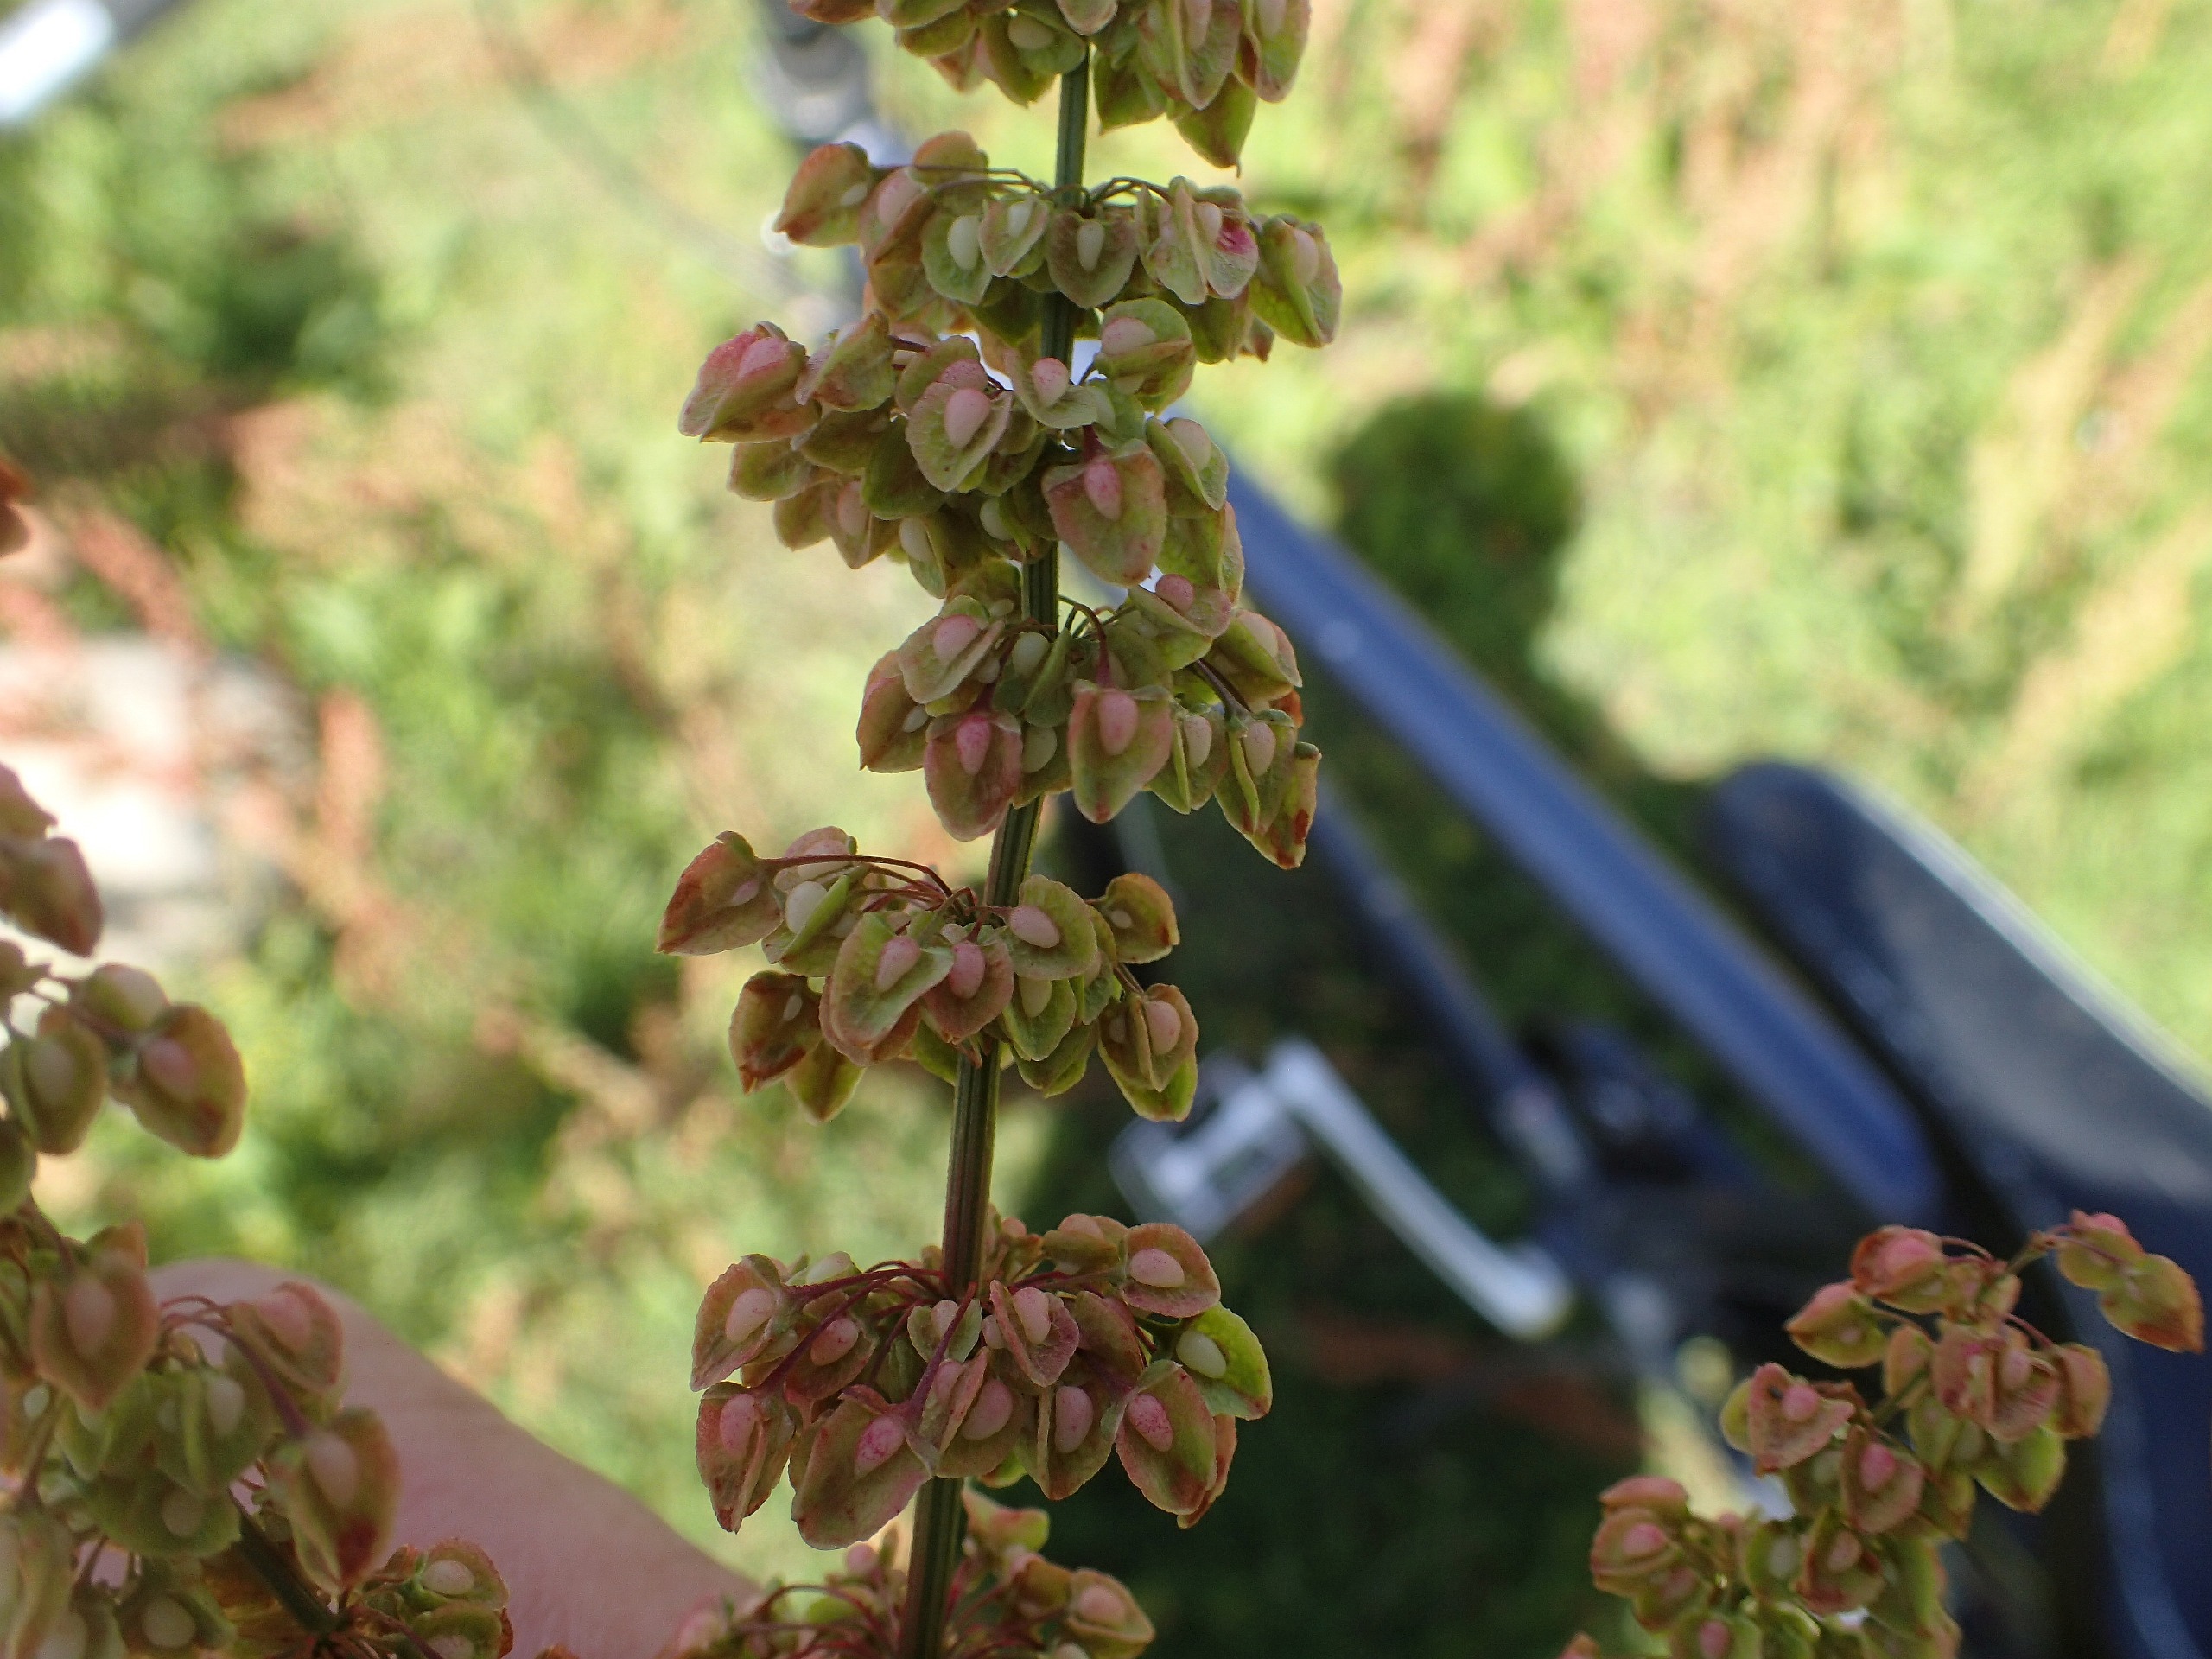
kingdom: Plantae
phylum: Tracheophyta
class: Magnoliopsida
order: Caryophyllales
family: Polygonaceae
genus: Rumex
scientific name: Rumex crispus
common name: Kruset skræppe
